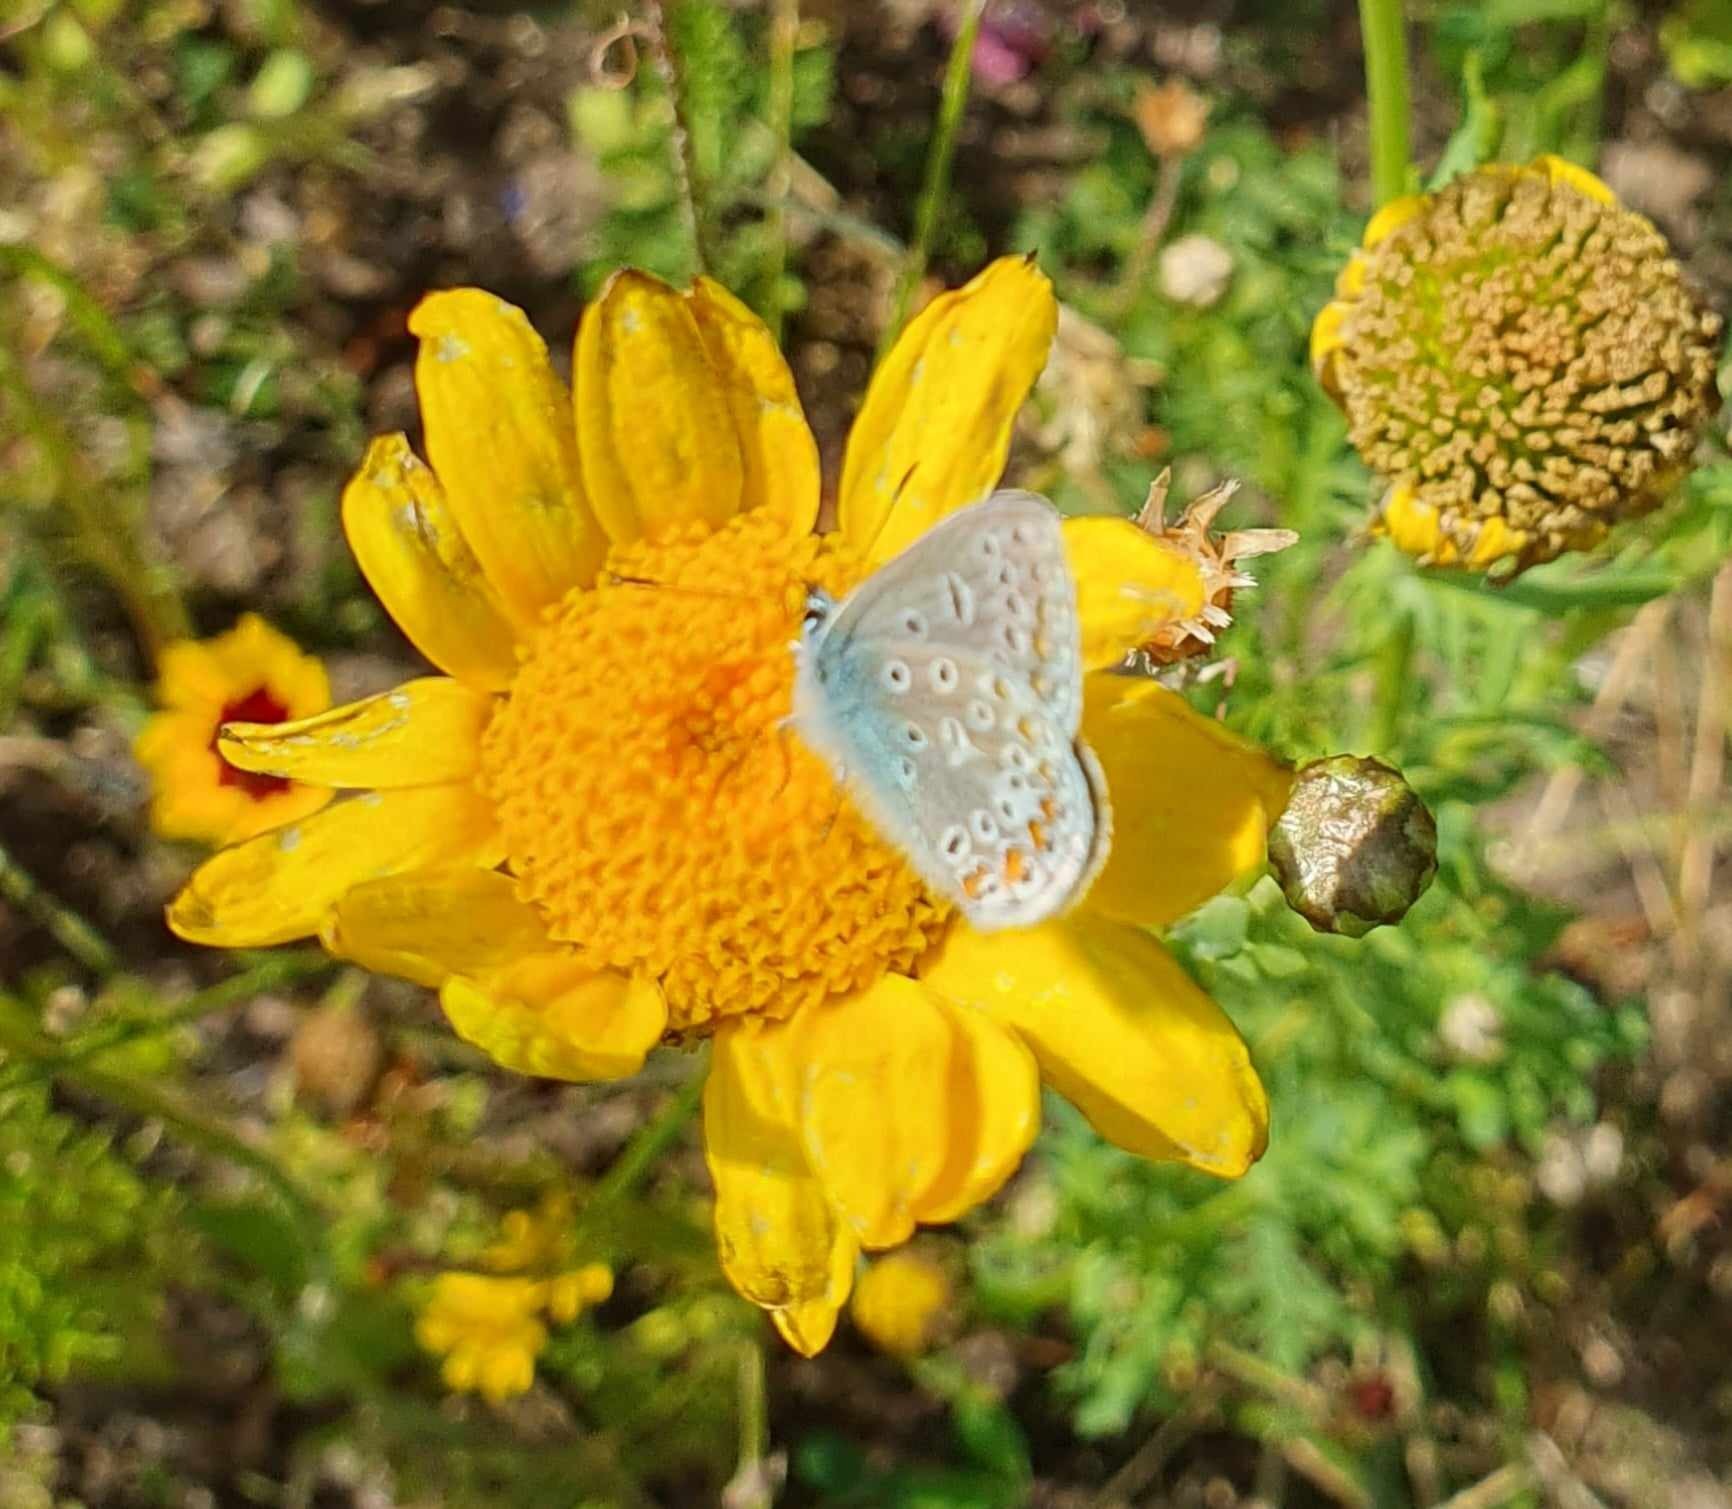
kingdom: Animalia
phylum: Arthropoda
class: Insecta
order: Lepidoptera
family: Lycaenidae
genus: Polyommatus
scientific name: Polyommatus icarus
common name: Almindelig blåfugl
